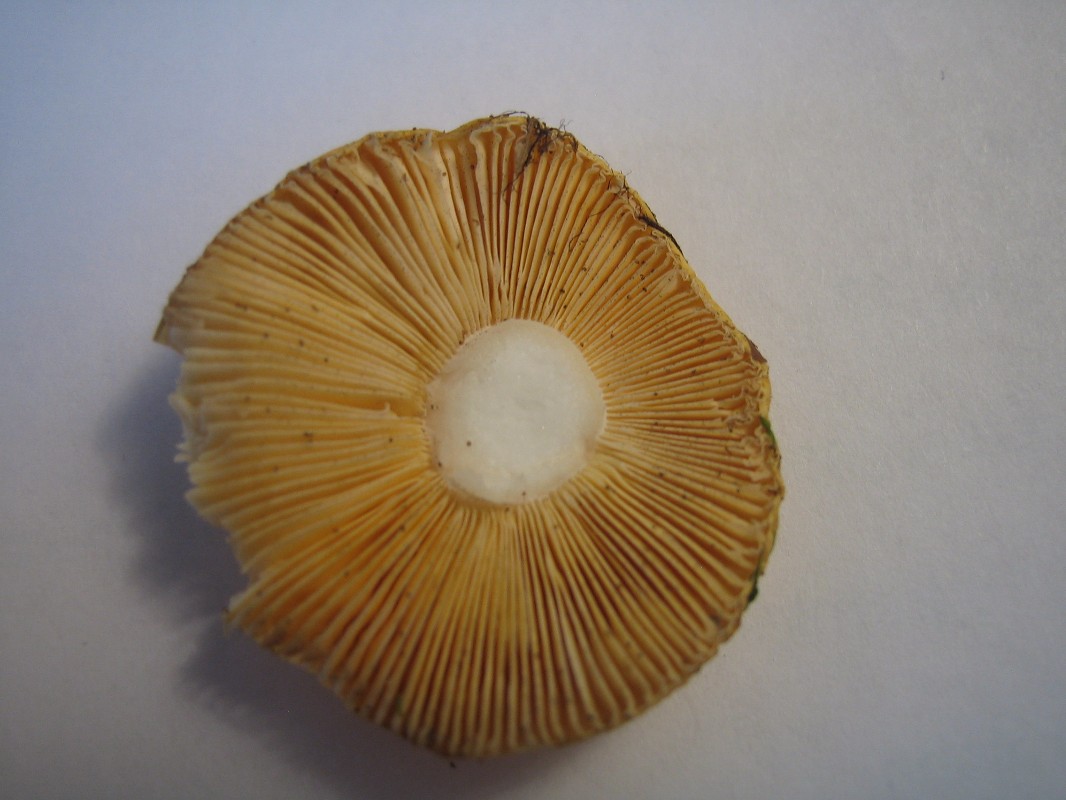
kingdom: Fungi
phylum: Basidiomycota
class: Agaricomycetes
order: Russulales
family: Russulaceae
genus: Russula
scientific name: Russula risigallina
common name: abrikos-skørhat
